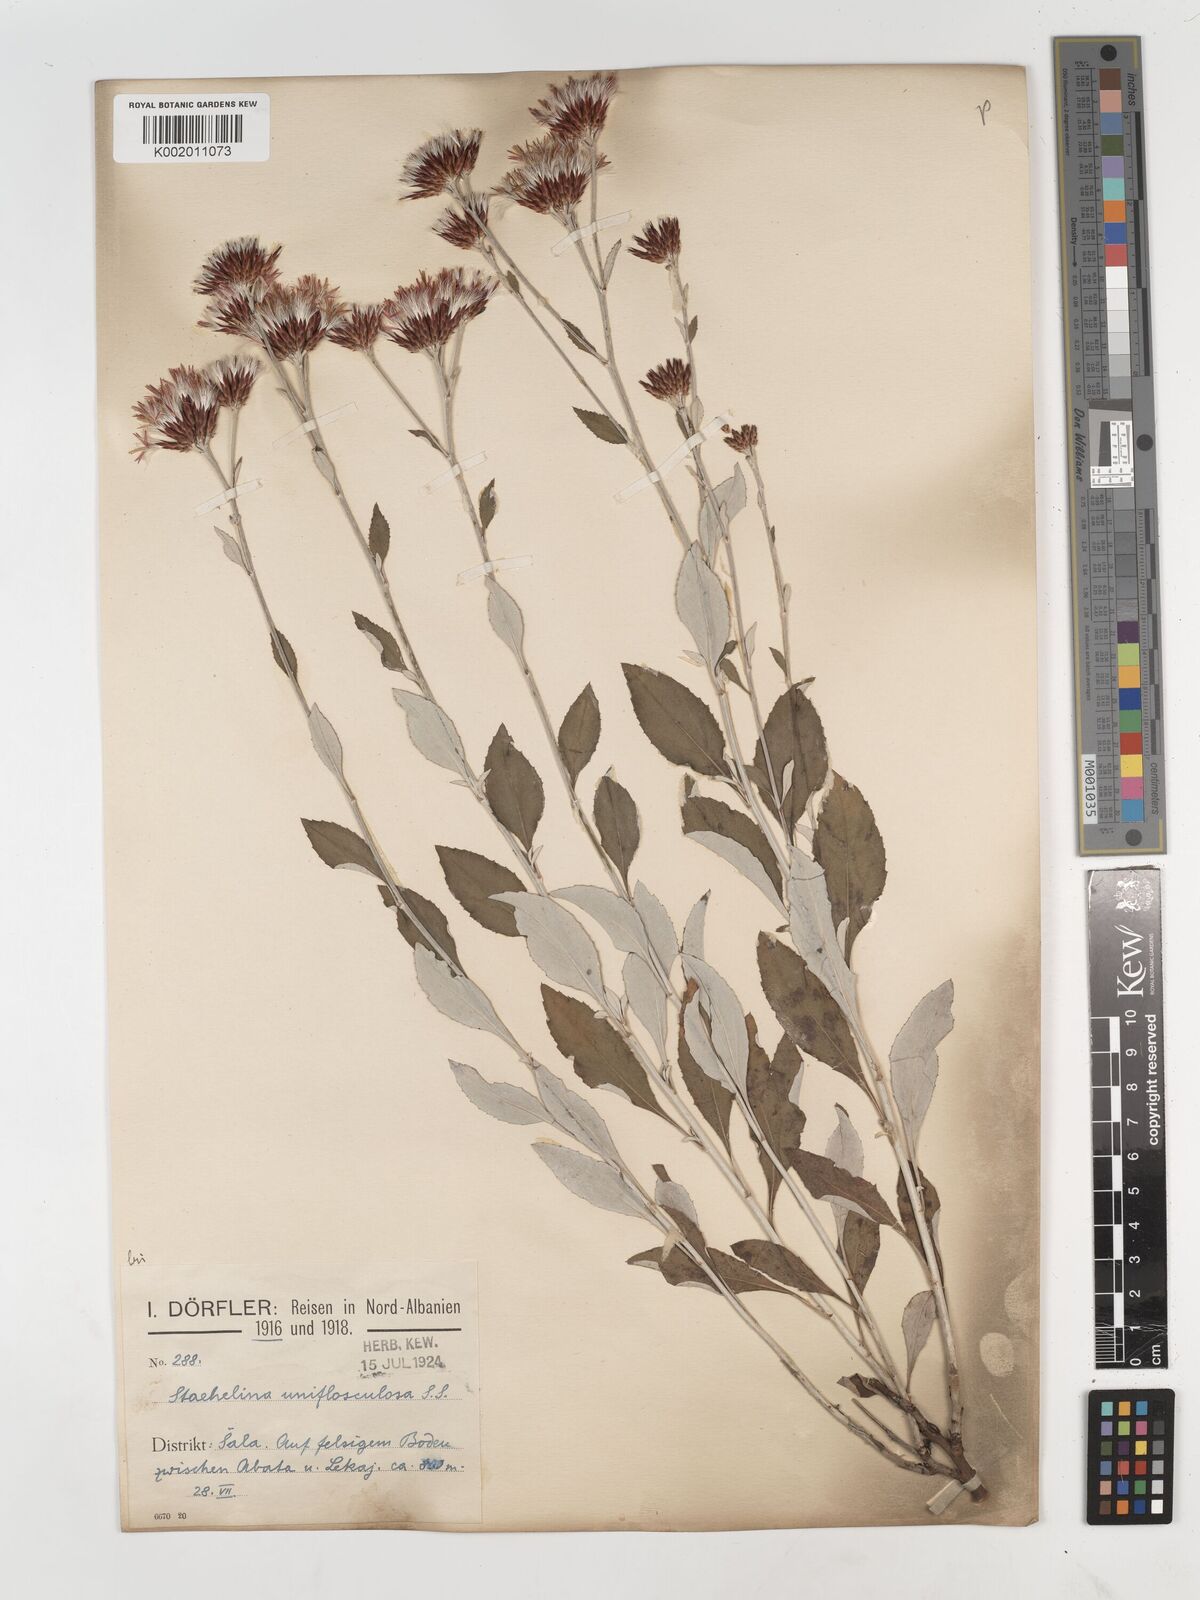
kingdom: Plantae
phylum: Tracheophyta
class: Magnoliopsida
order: Asterales
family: Asteraceae
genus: Staehelina
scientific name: Staehelina uniflosculosa
